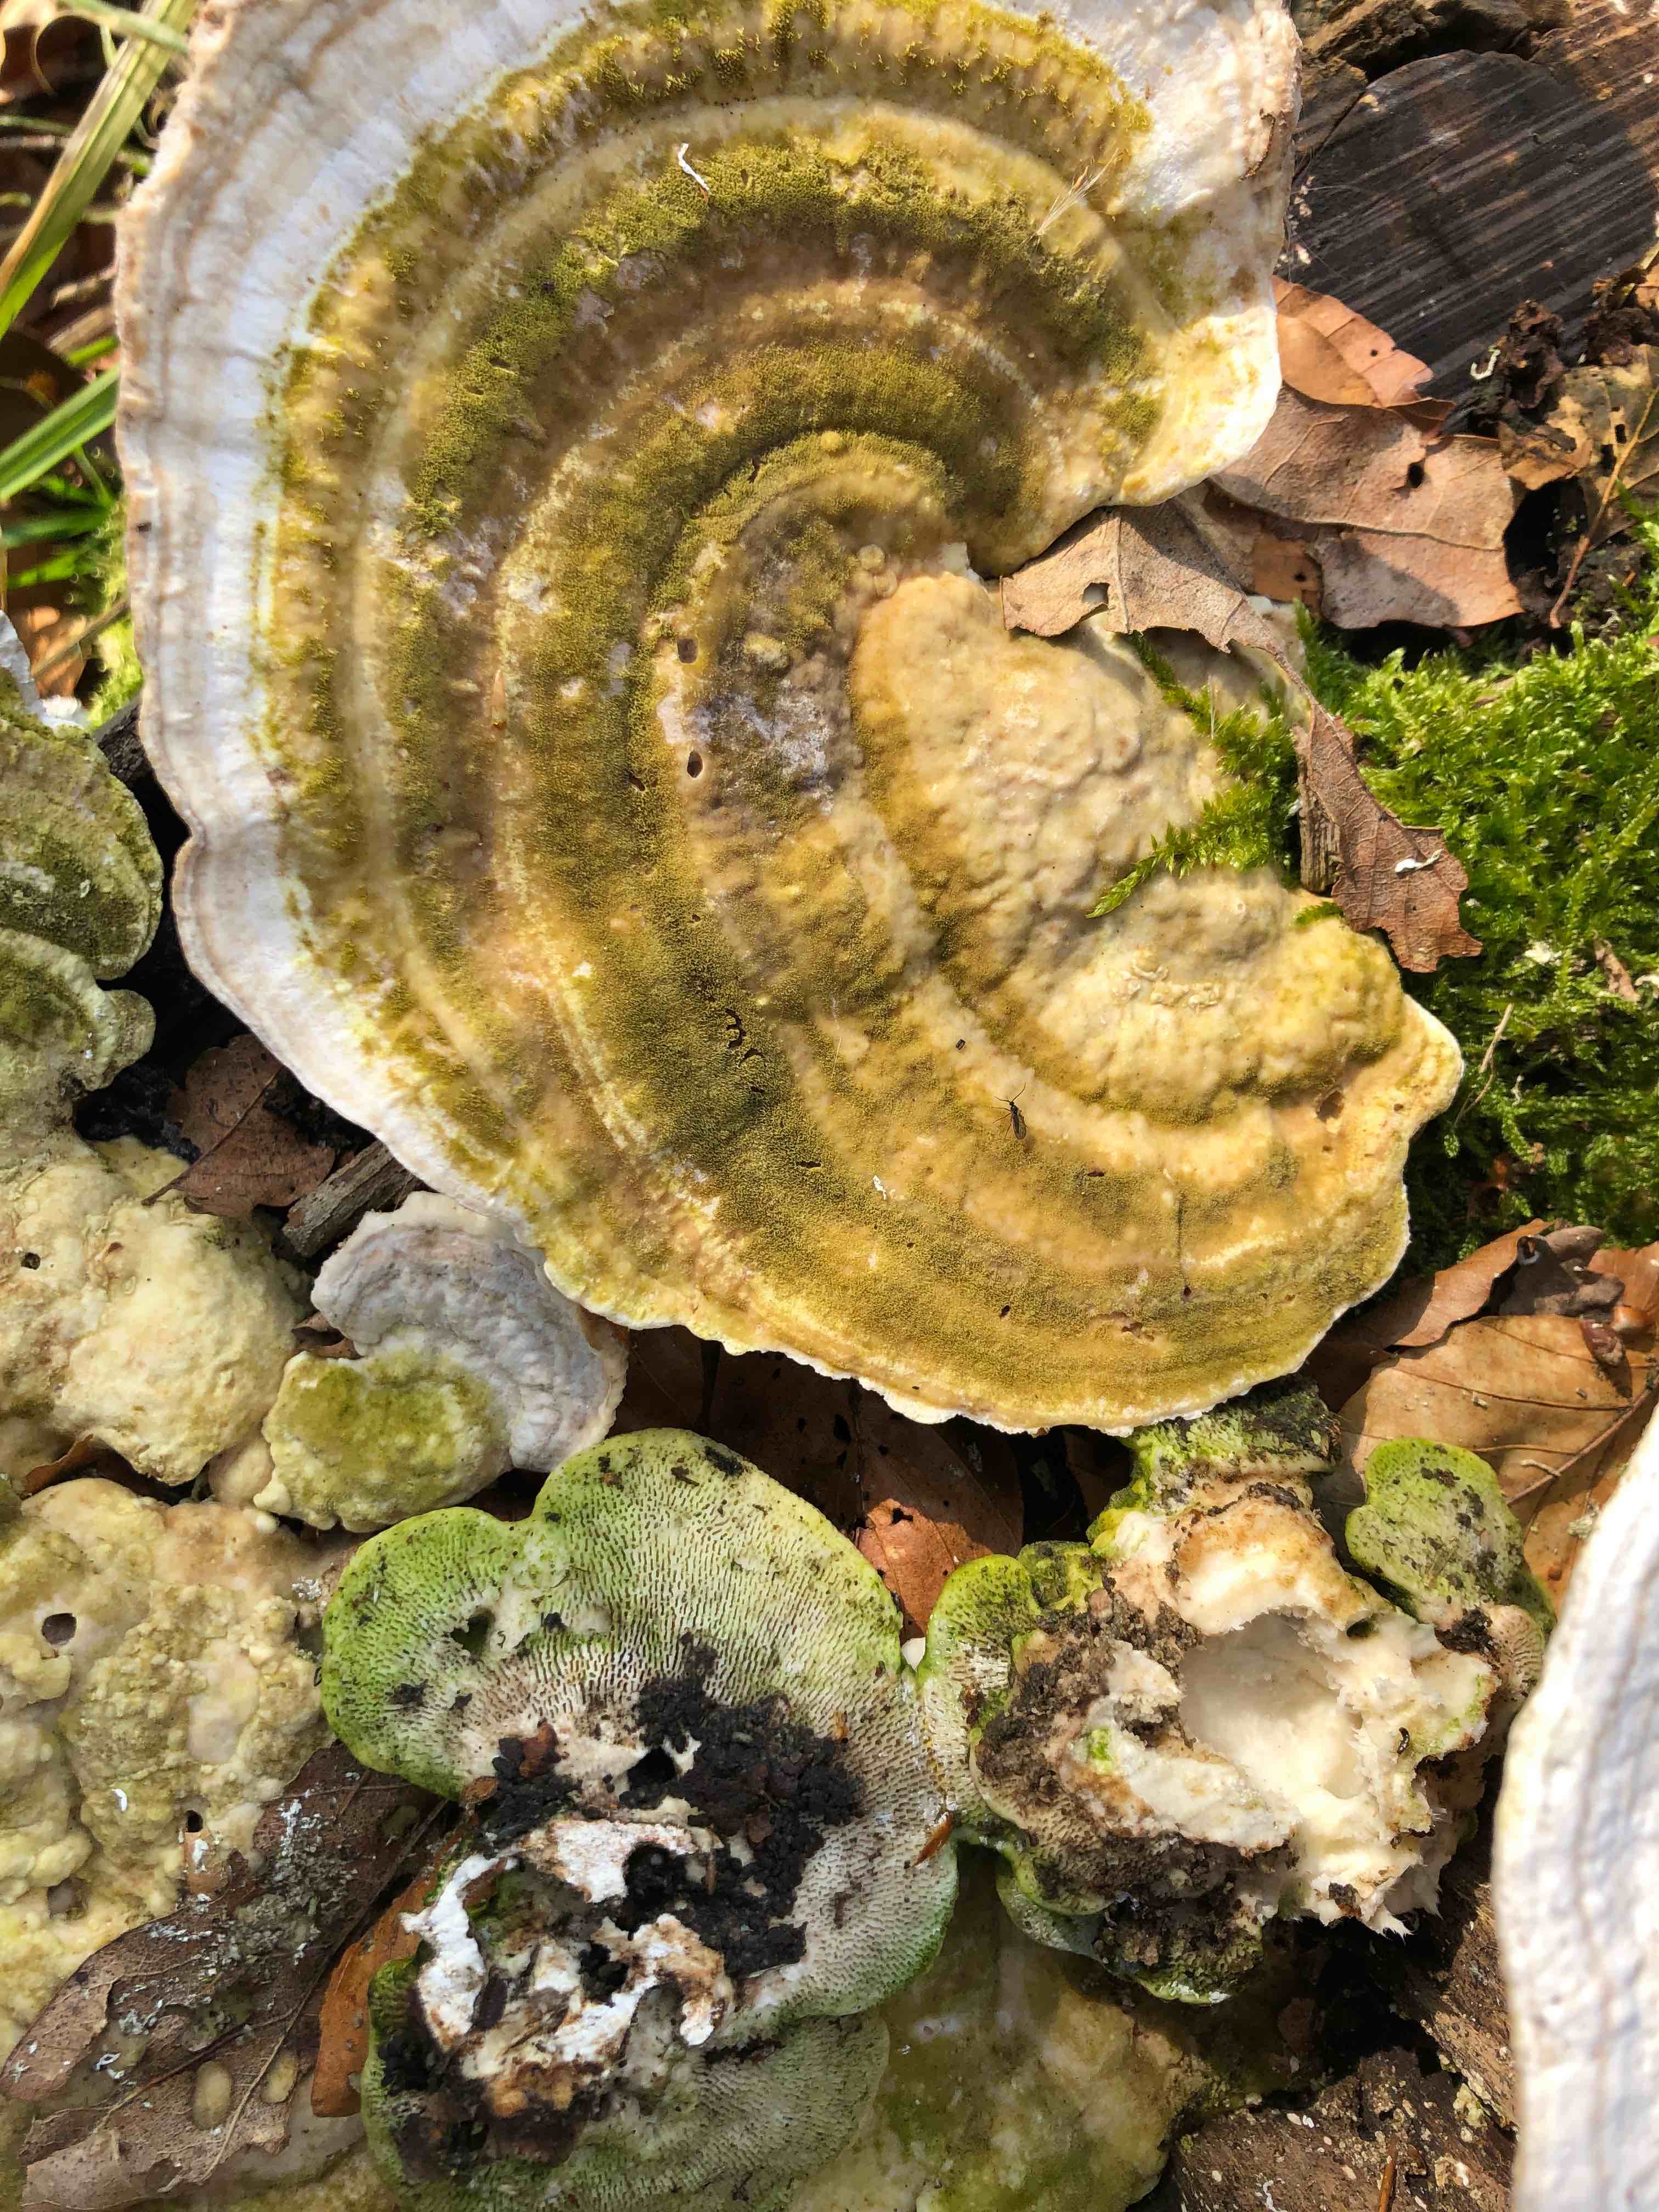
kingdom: Fungi
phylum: Basidiomycota
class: Agaricomycetes
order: Polyporales
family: Polyporaceae
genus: Trametes
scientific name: Trametes gibbosa
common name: puklet læderporesvamp
